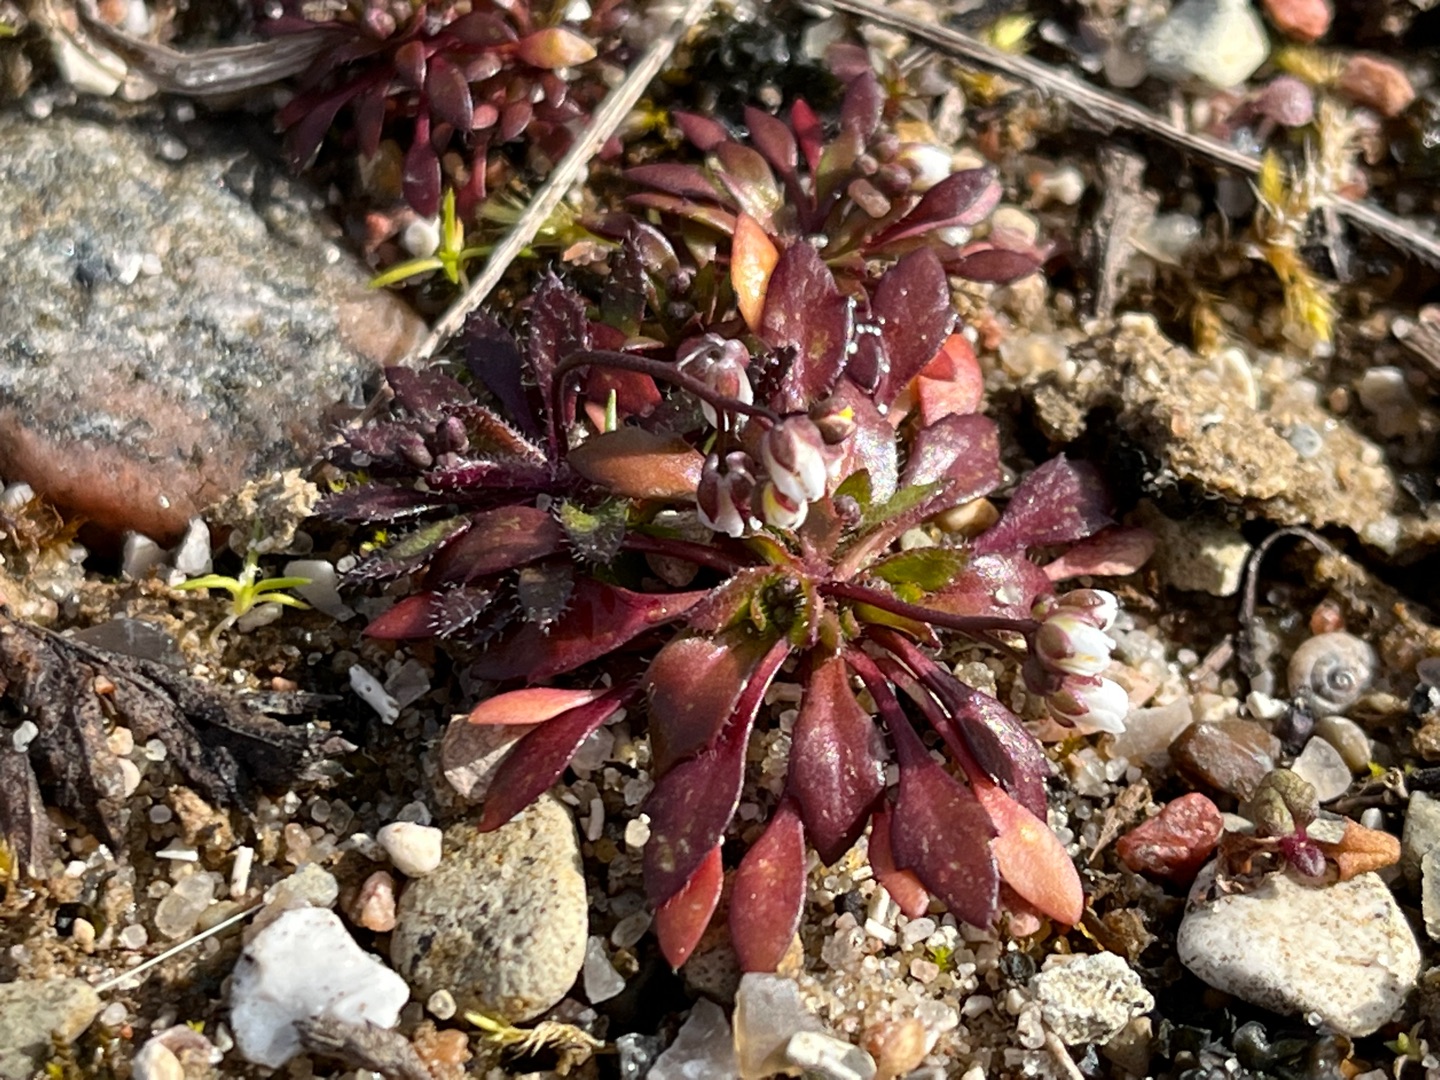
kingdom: Plantae
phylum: Tracheophyta
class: Magnoliopsida
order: Brassicales
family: Brassicaceae
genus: Draba
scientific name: Draba verna
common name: Vår-gæslingeblomst
